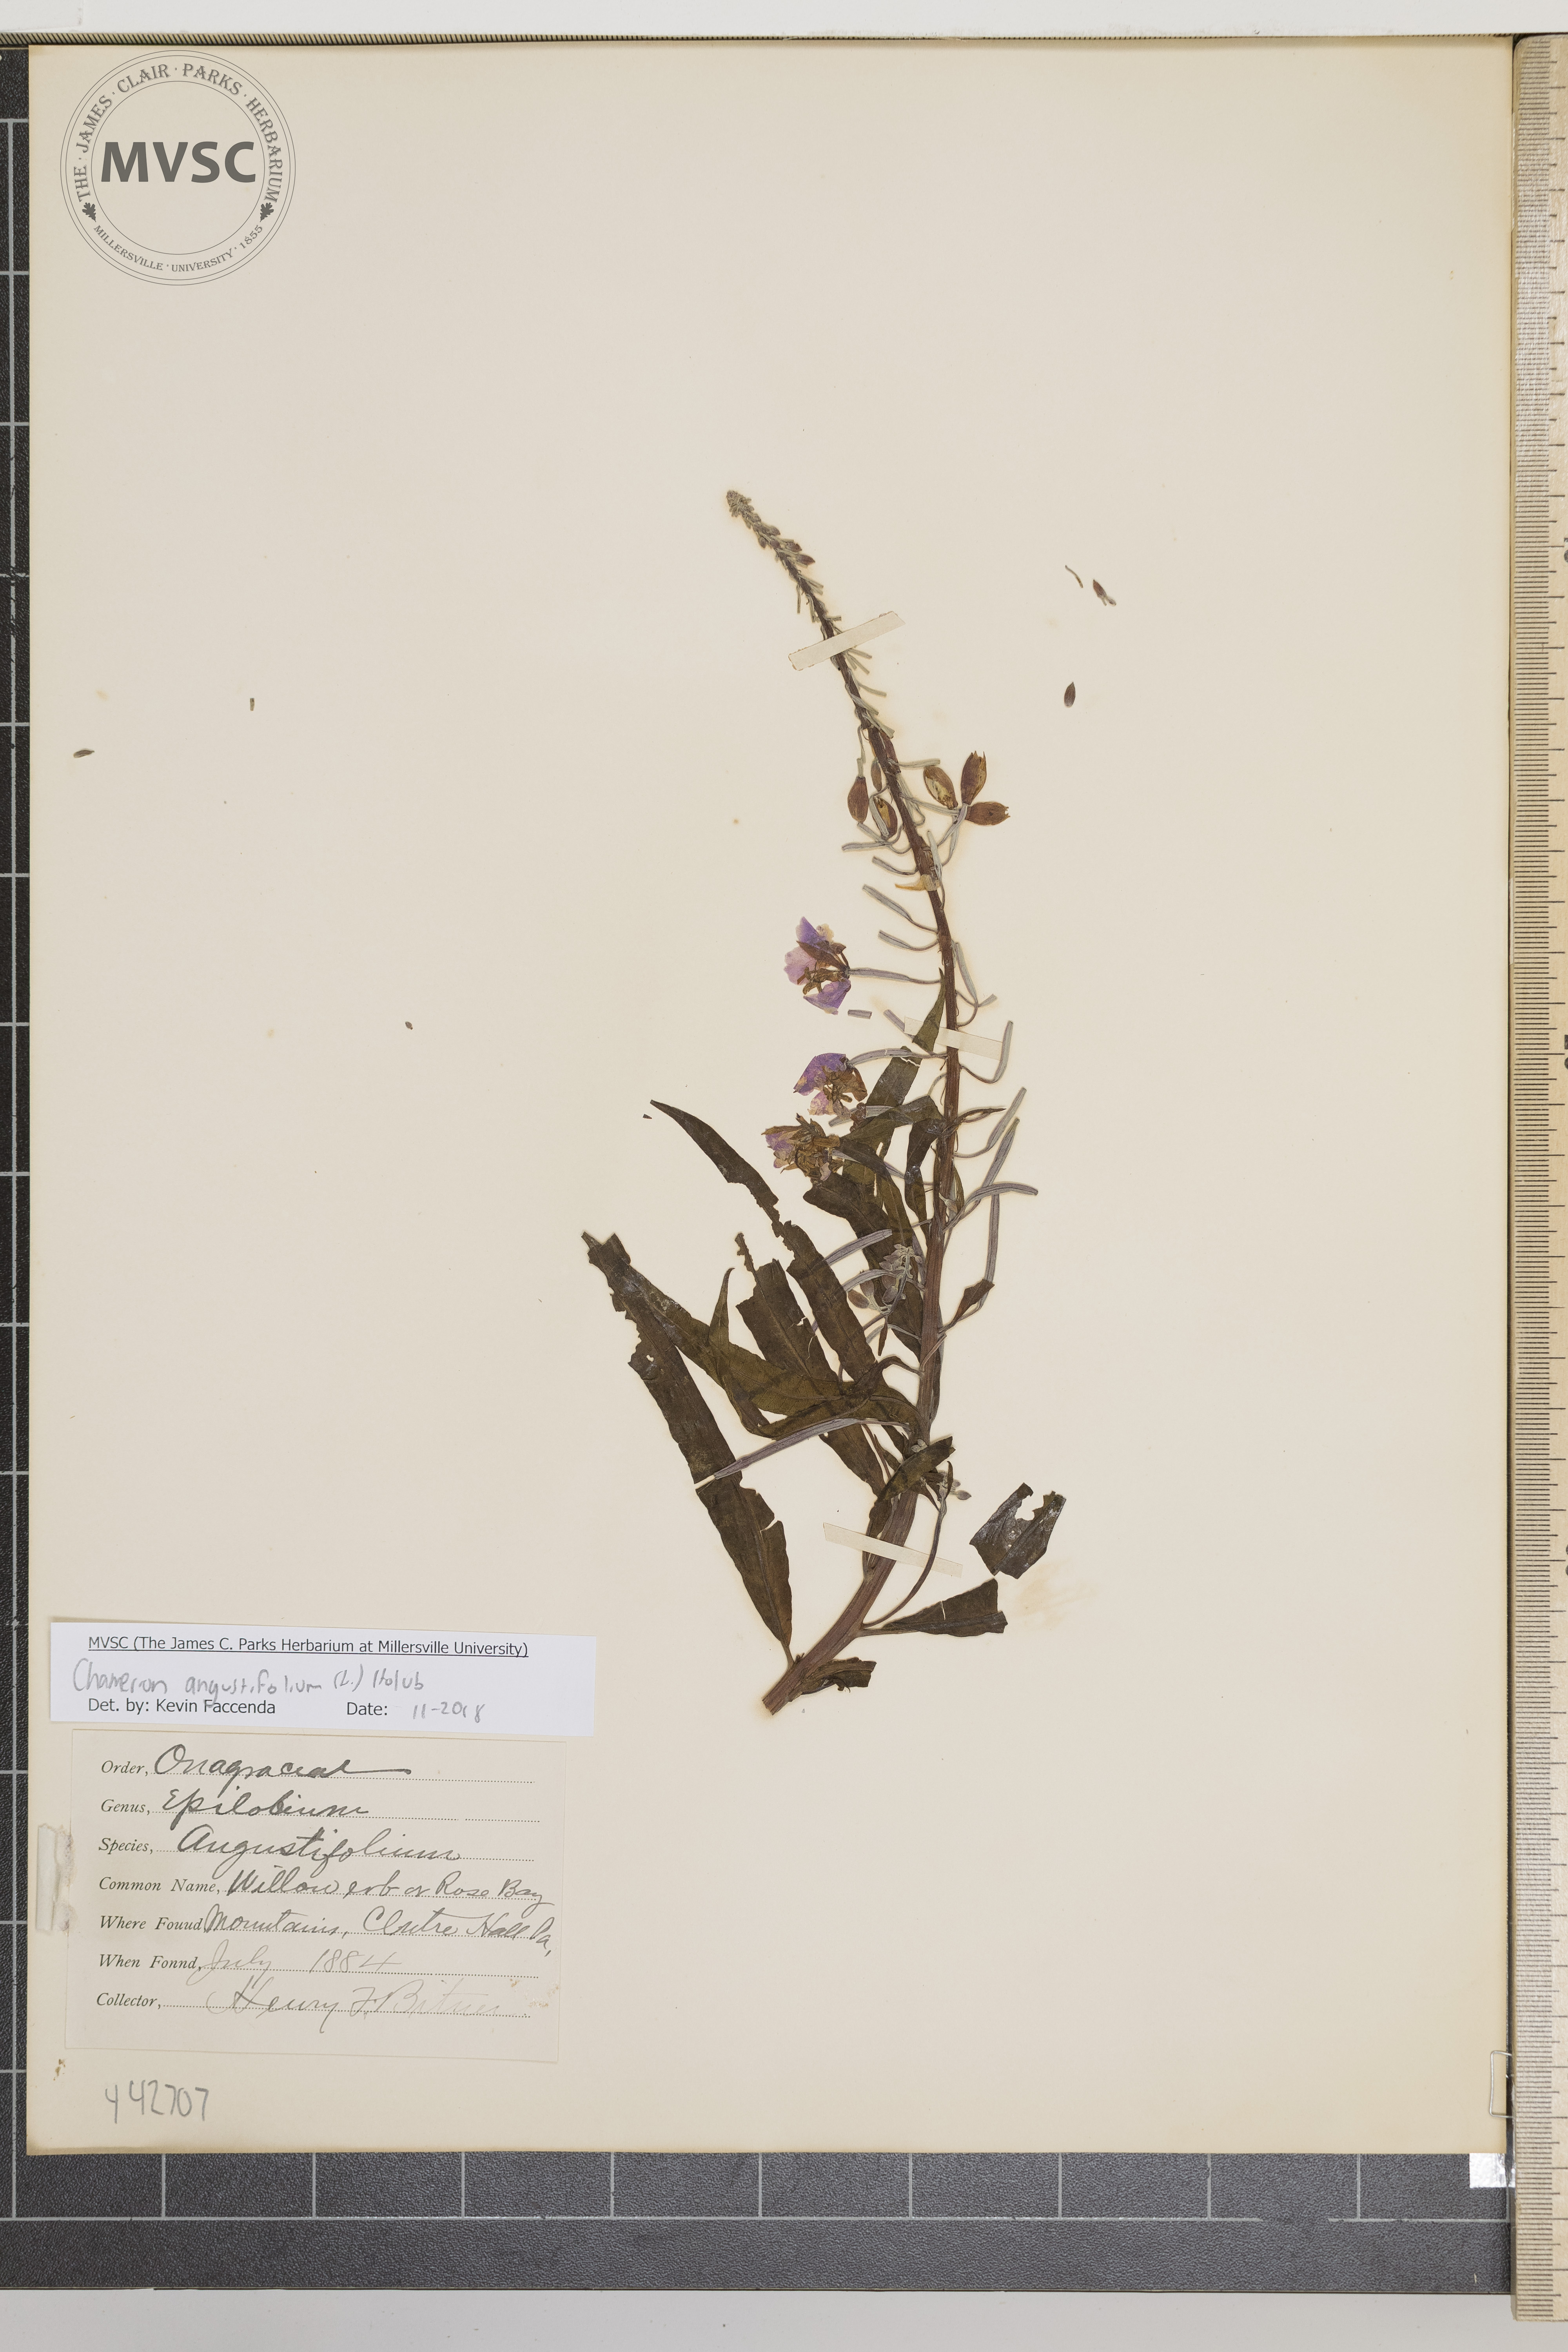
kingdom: Plantae
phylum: Tracheophyta
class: Magnoliopsida
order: Myrtales
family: Onagraceae
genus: Chamaenerion
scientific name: Chamaenerion angustifolium
